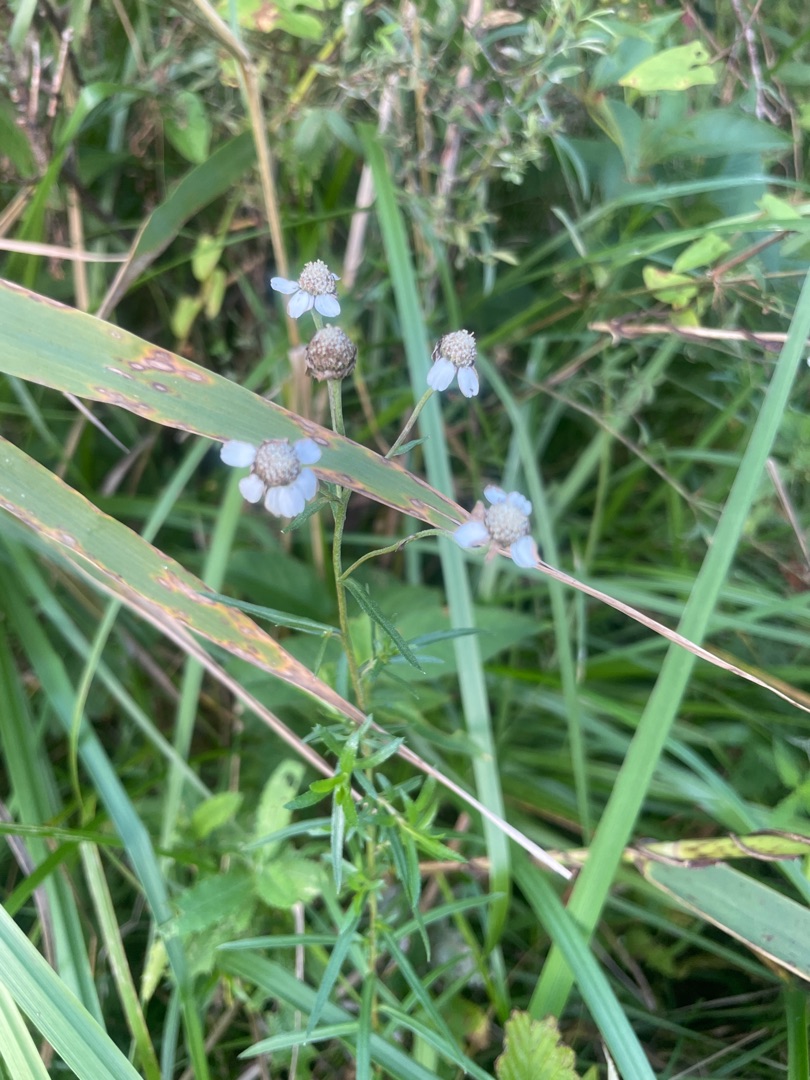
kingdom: Plantae
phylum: Tracheophyta
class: Magnoliopsida
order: Asterales
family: Asteraceae
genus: Achillea
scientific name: Achillea ptarmica
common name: Nyse-røllike
